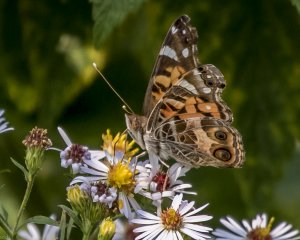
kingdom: Animalia
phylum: Arthropoda
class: Insecta
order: Lepidoptera
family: Nymphalidae
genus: Vanessa
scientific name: Vanessa virginiensis
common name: American Lady
